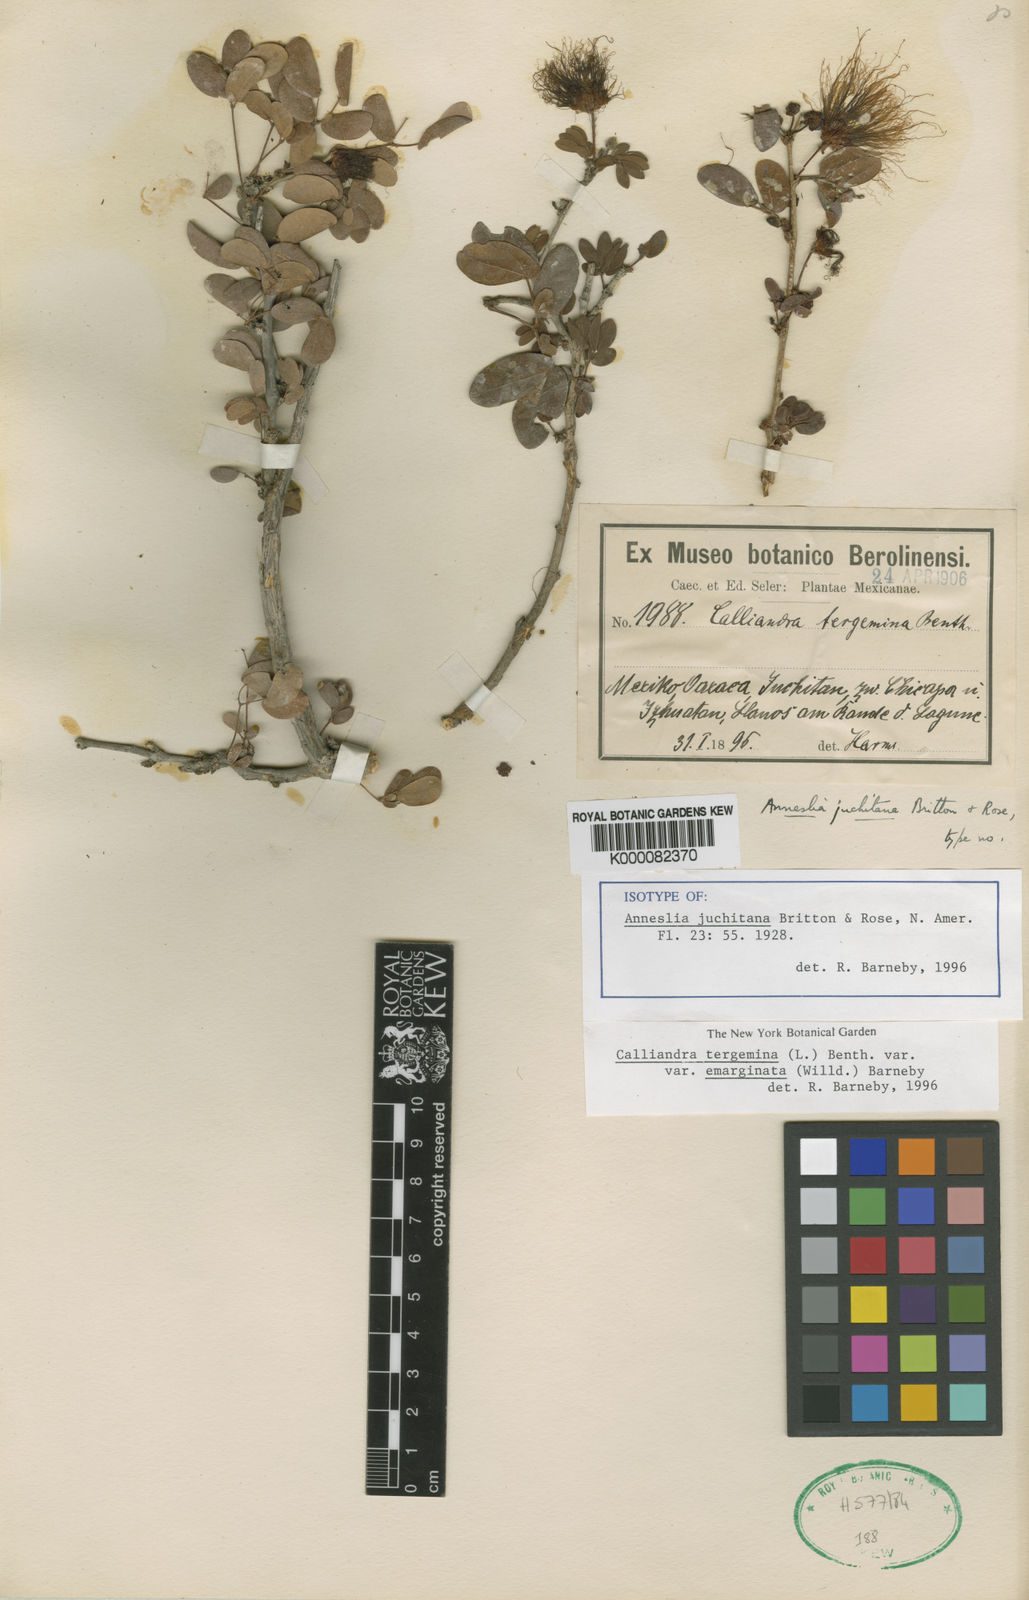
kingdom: Plantae
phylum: Tracheophyta
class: Magnoliopsida
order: Fabales
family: Fabaceae
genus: Calliandra
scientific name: Calliandra tergemina
